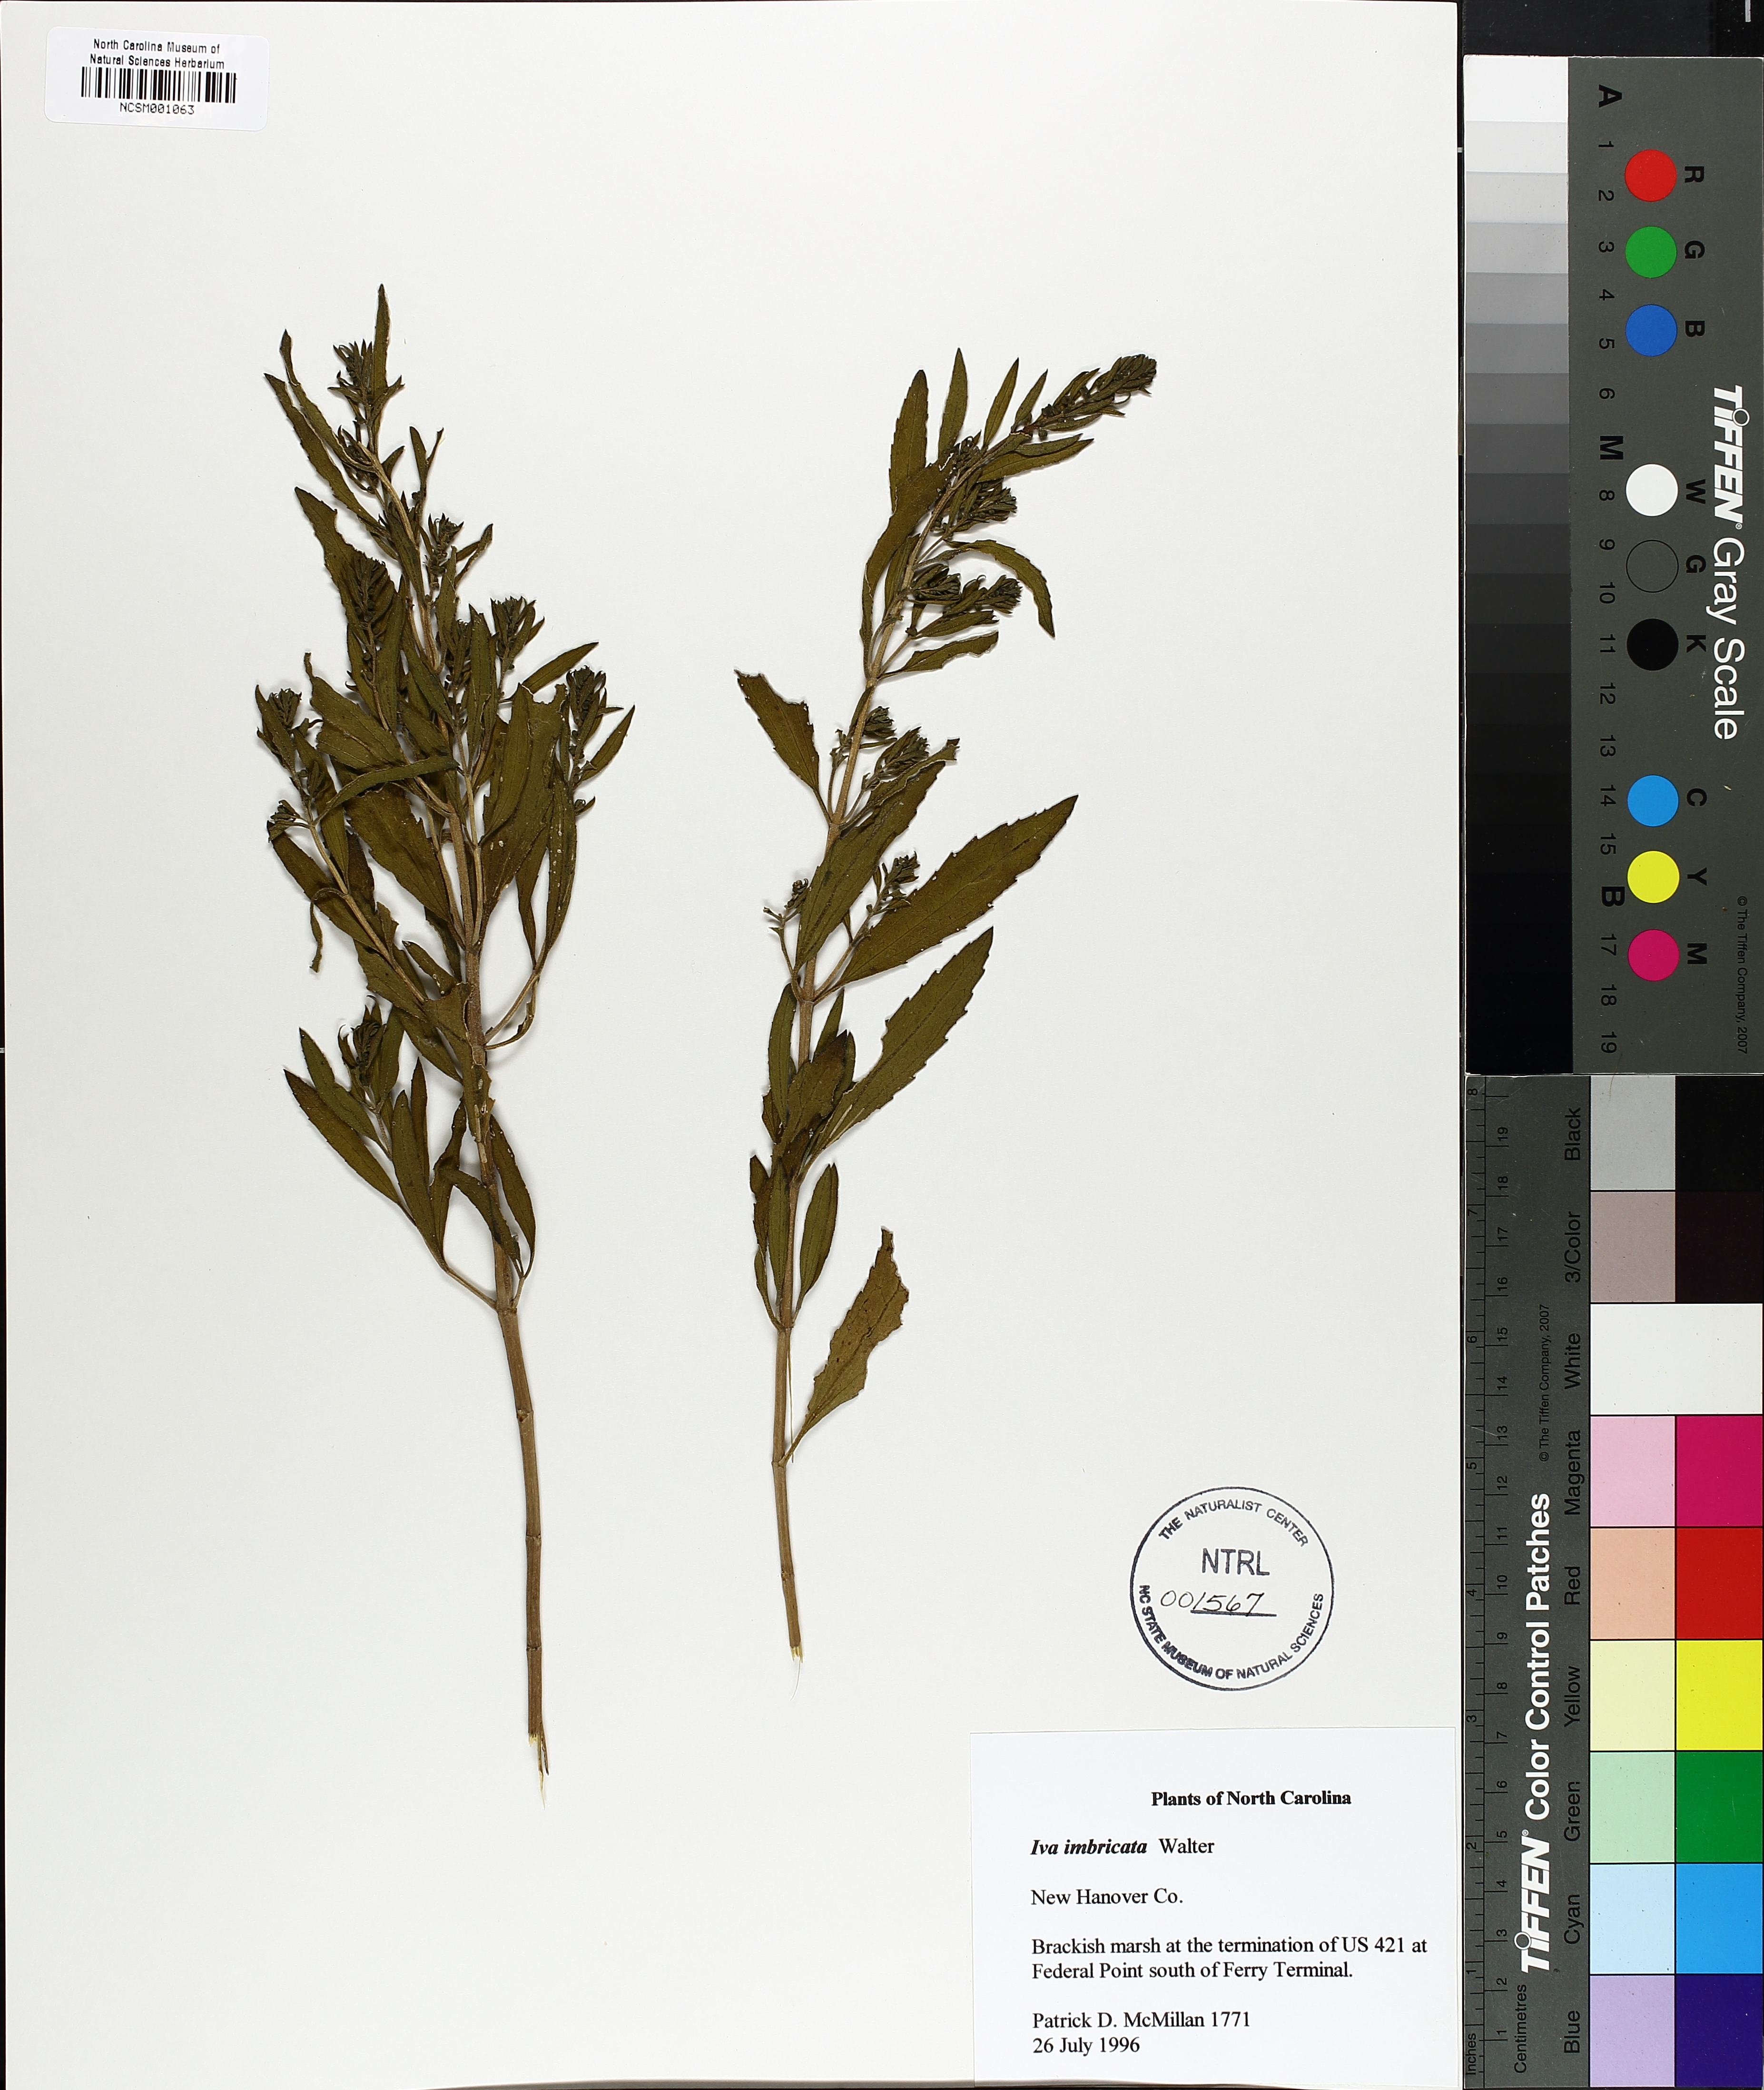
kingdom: Plantae
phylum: Tracheophyta
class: Magnoliopsida
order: Asterales
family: Asteraceae
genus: Iva
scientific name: Iva imbricata
